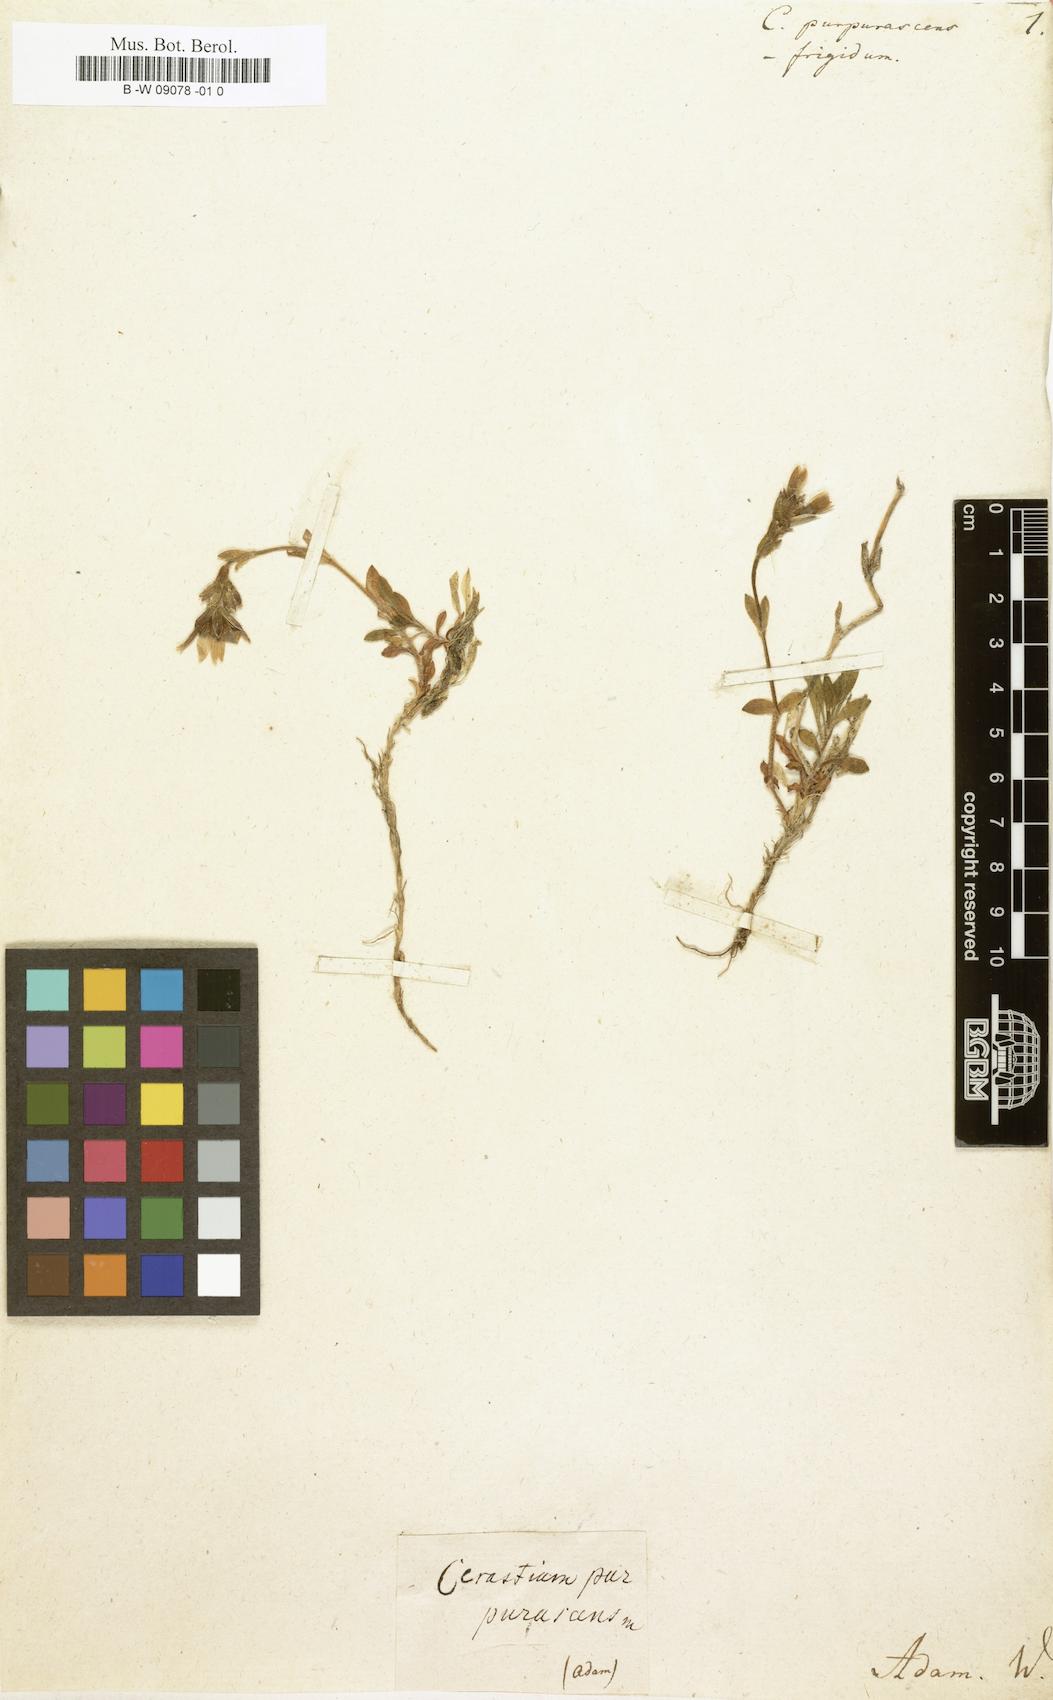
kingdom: Plantae
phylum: Tracheophyta
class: Magnoliopsida
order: Caryophyllales
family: Caryophyllaceae
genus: Cerastium
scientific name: Cerastium purpurascens
